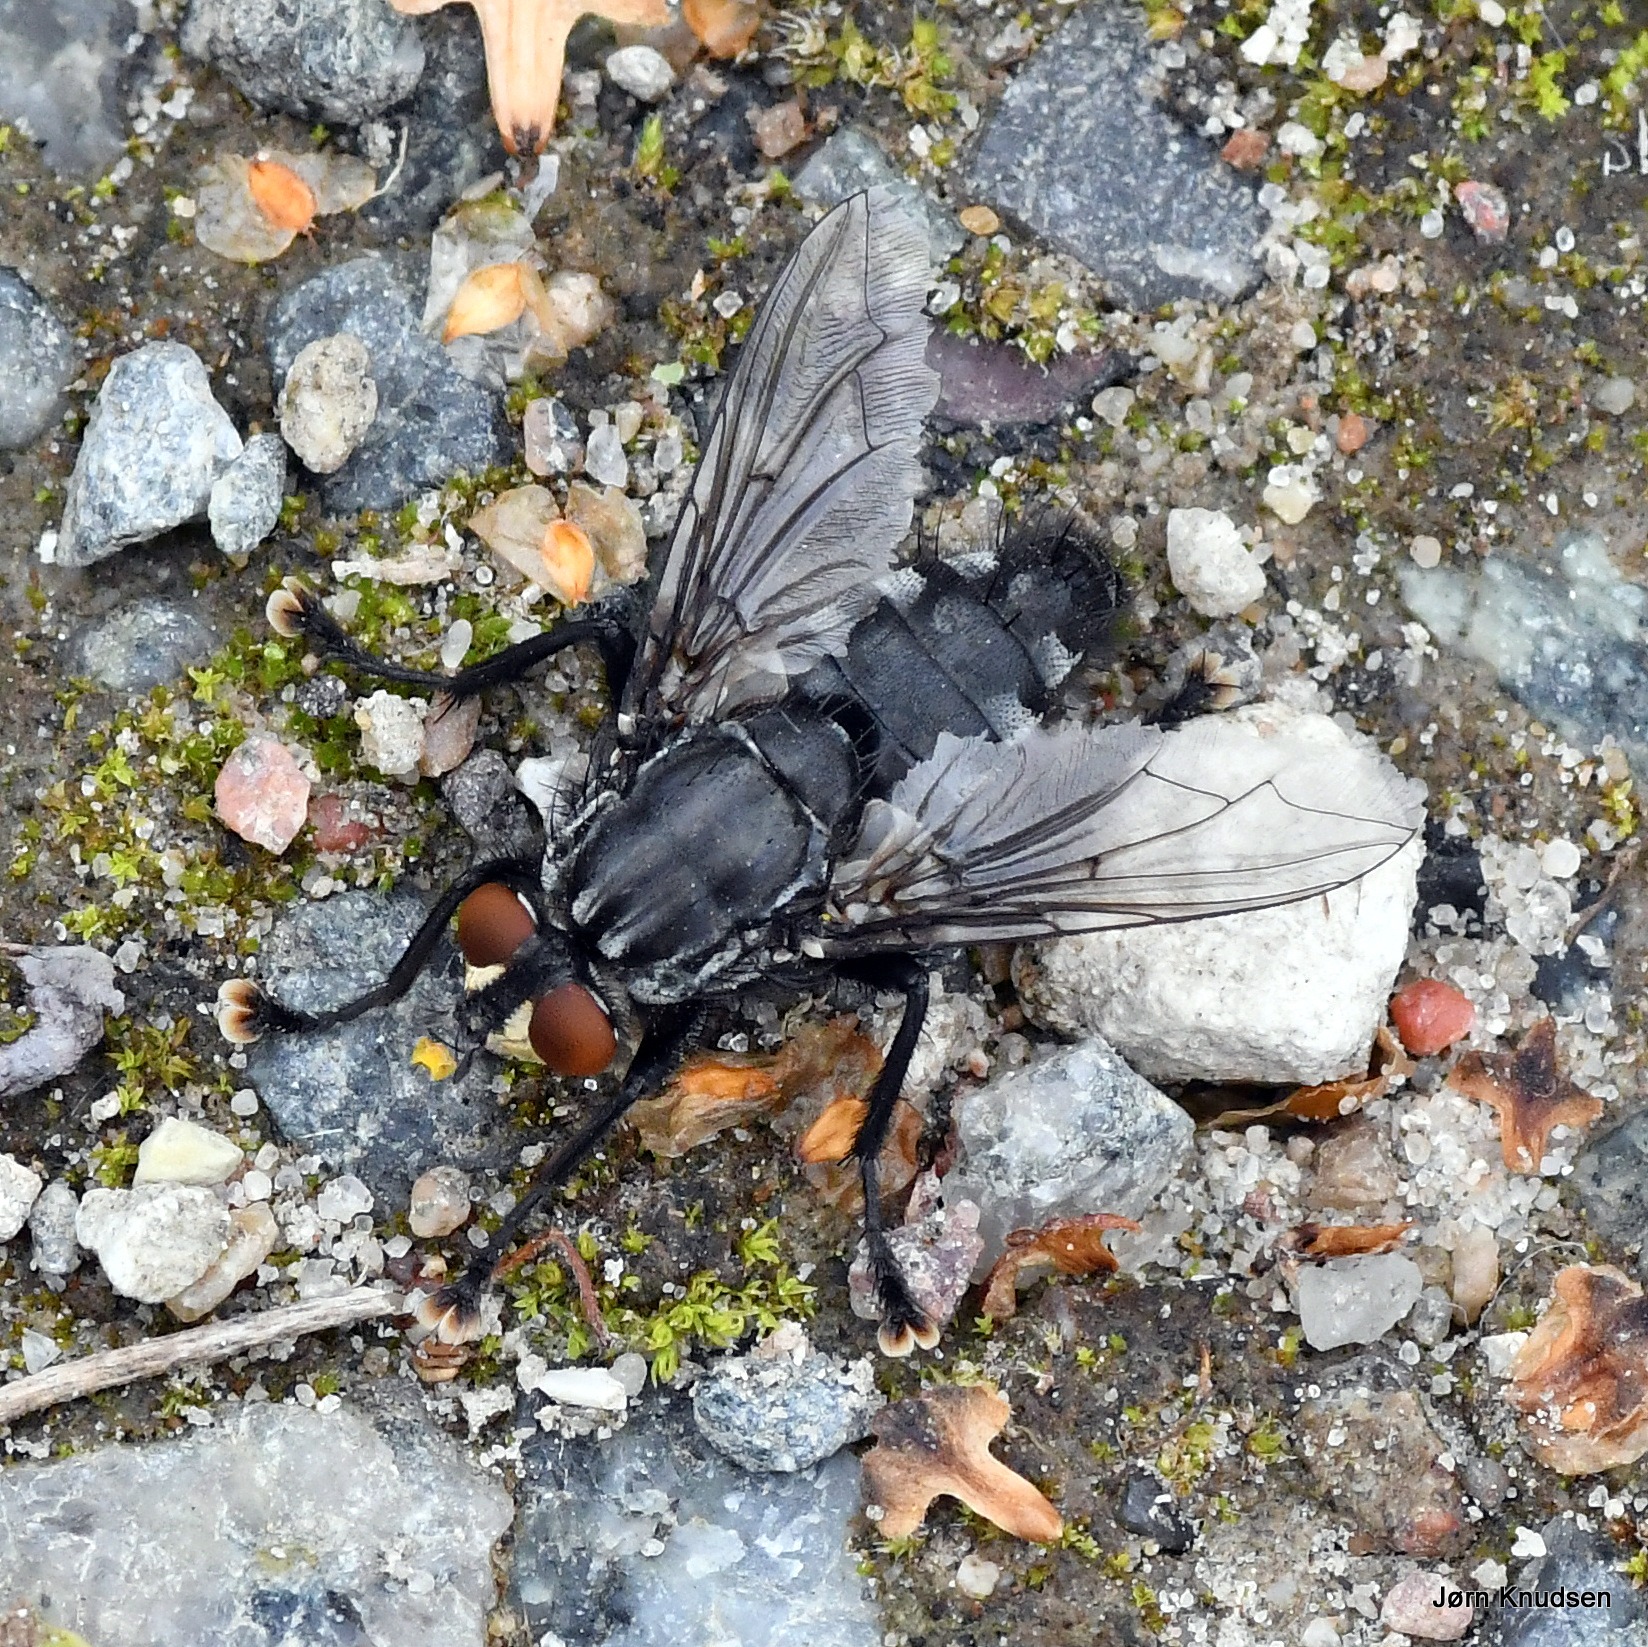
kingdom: Animalia
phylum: Arthropoda
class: Insecta
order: Diptera
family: Sarcophagidae
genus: Sarcophaga
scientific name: Sarcophaga
